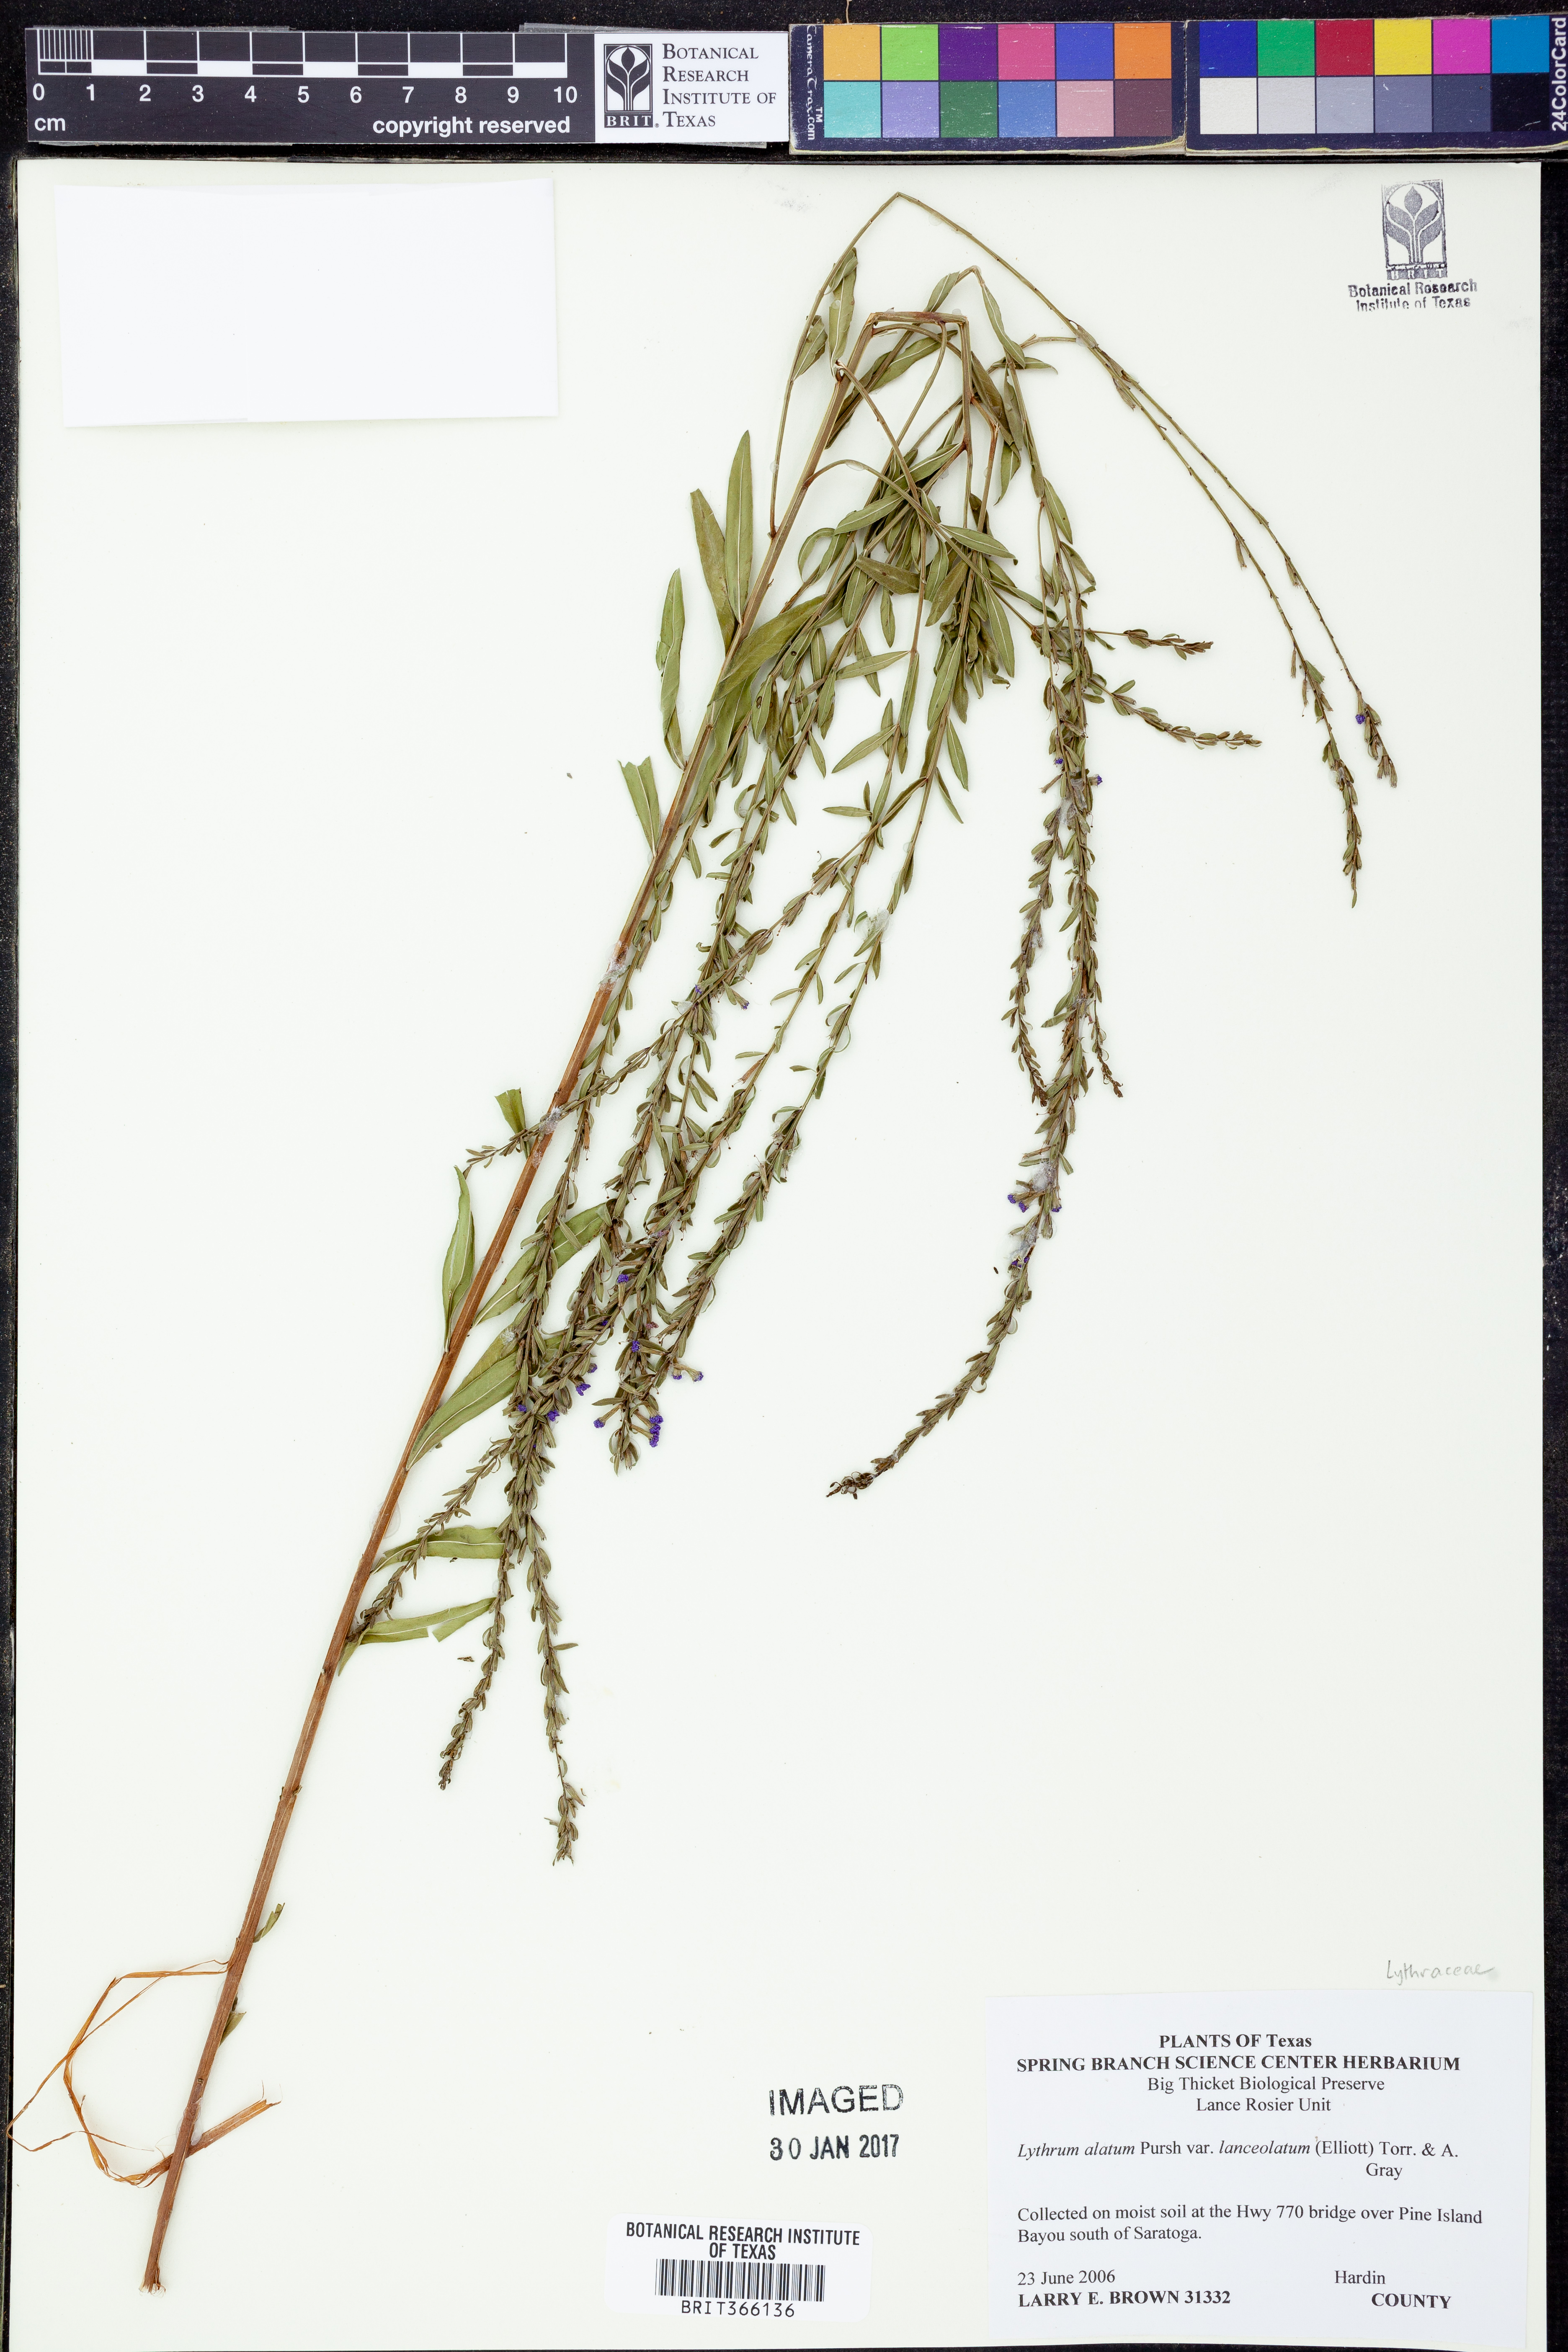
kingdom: Plantae
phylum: Tracheophyta
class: Magnoliopsida
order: Myrtales
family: Lythraceae
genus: Lythrum
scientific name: Lythrum alatum
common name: Winged loosestrife
